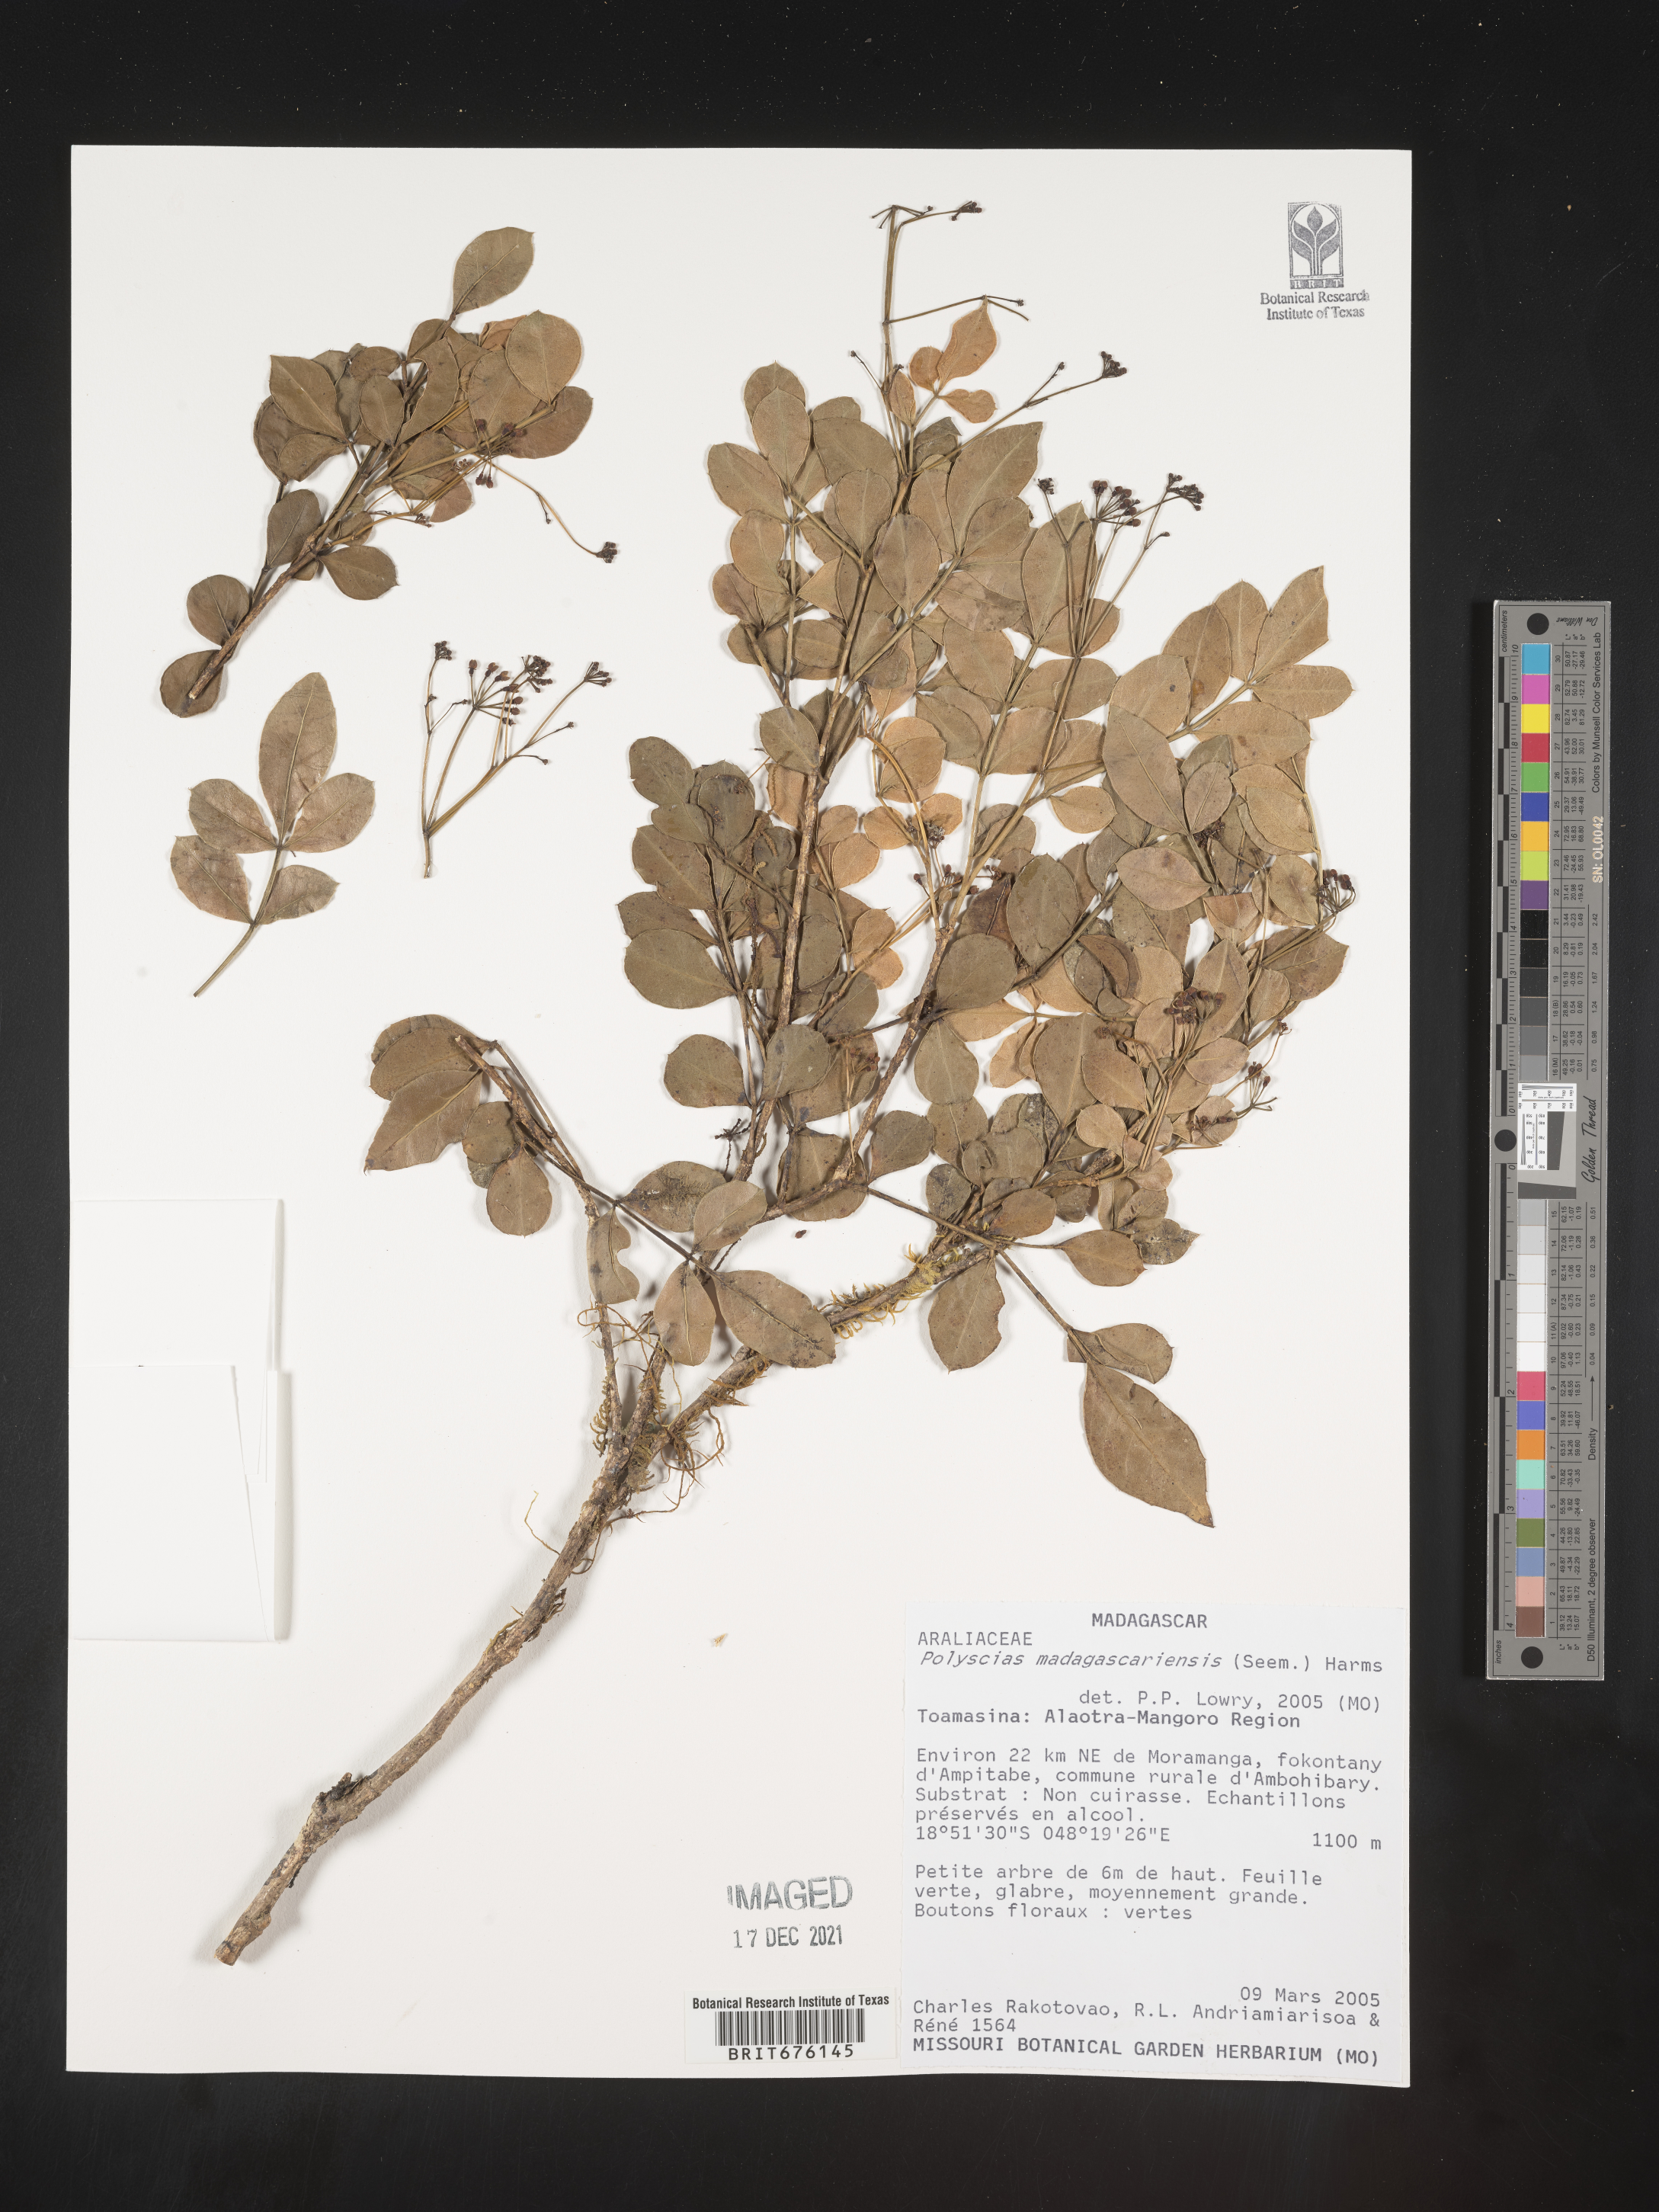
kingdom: Plantae
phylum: Tracheophyta
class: Magnoliopsida
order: Apiales
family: Araliaceae
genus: Polyscias
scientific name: Polyscias
